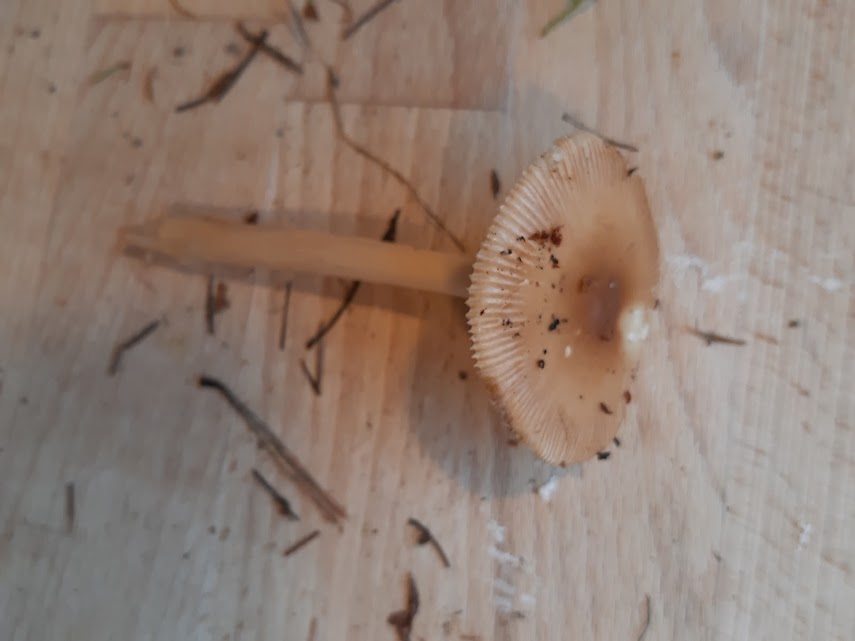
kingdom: Fungi
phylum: Basidiomycota
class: Agaricomycetes
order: Agaricales
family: Amanitaceae
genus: Amanita
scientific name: Amanita fulva
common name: brun kam-fluesvamp
